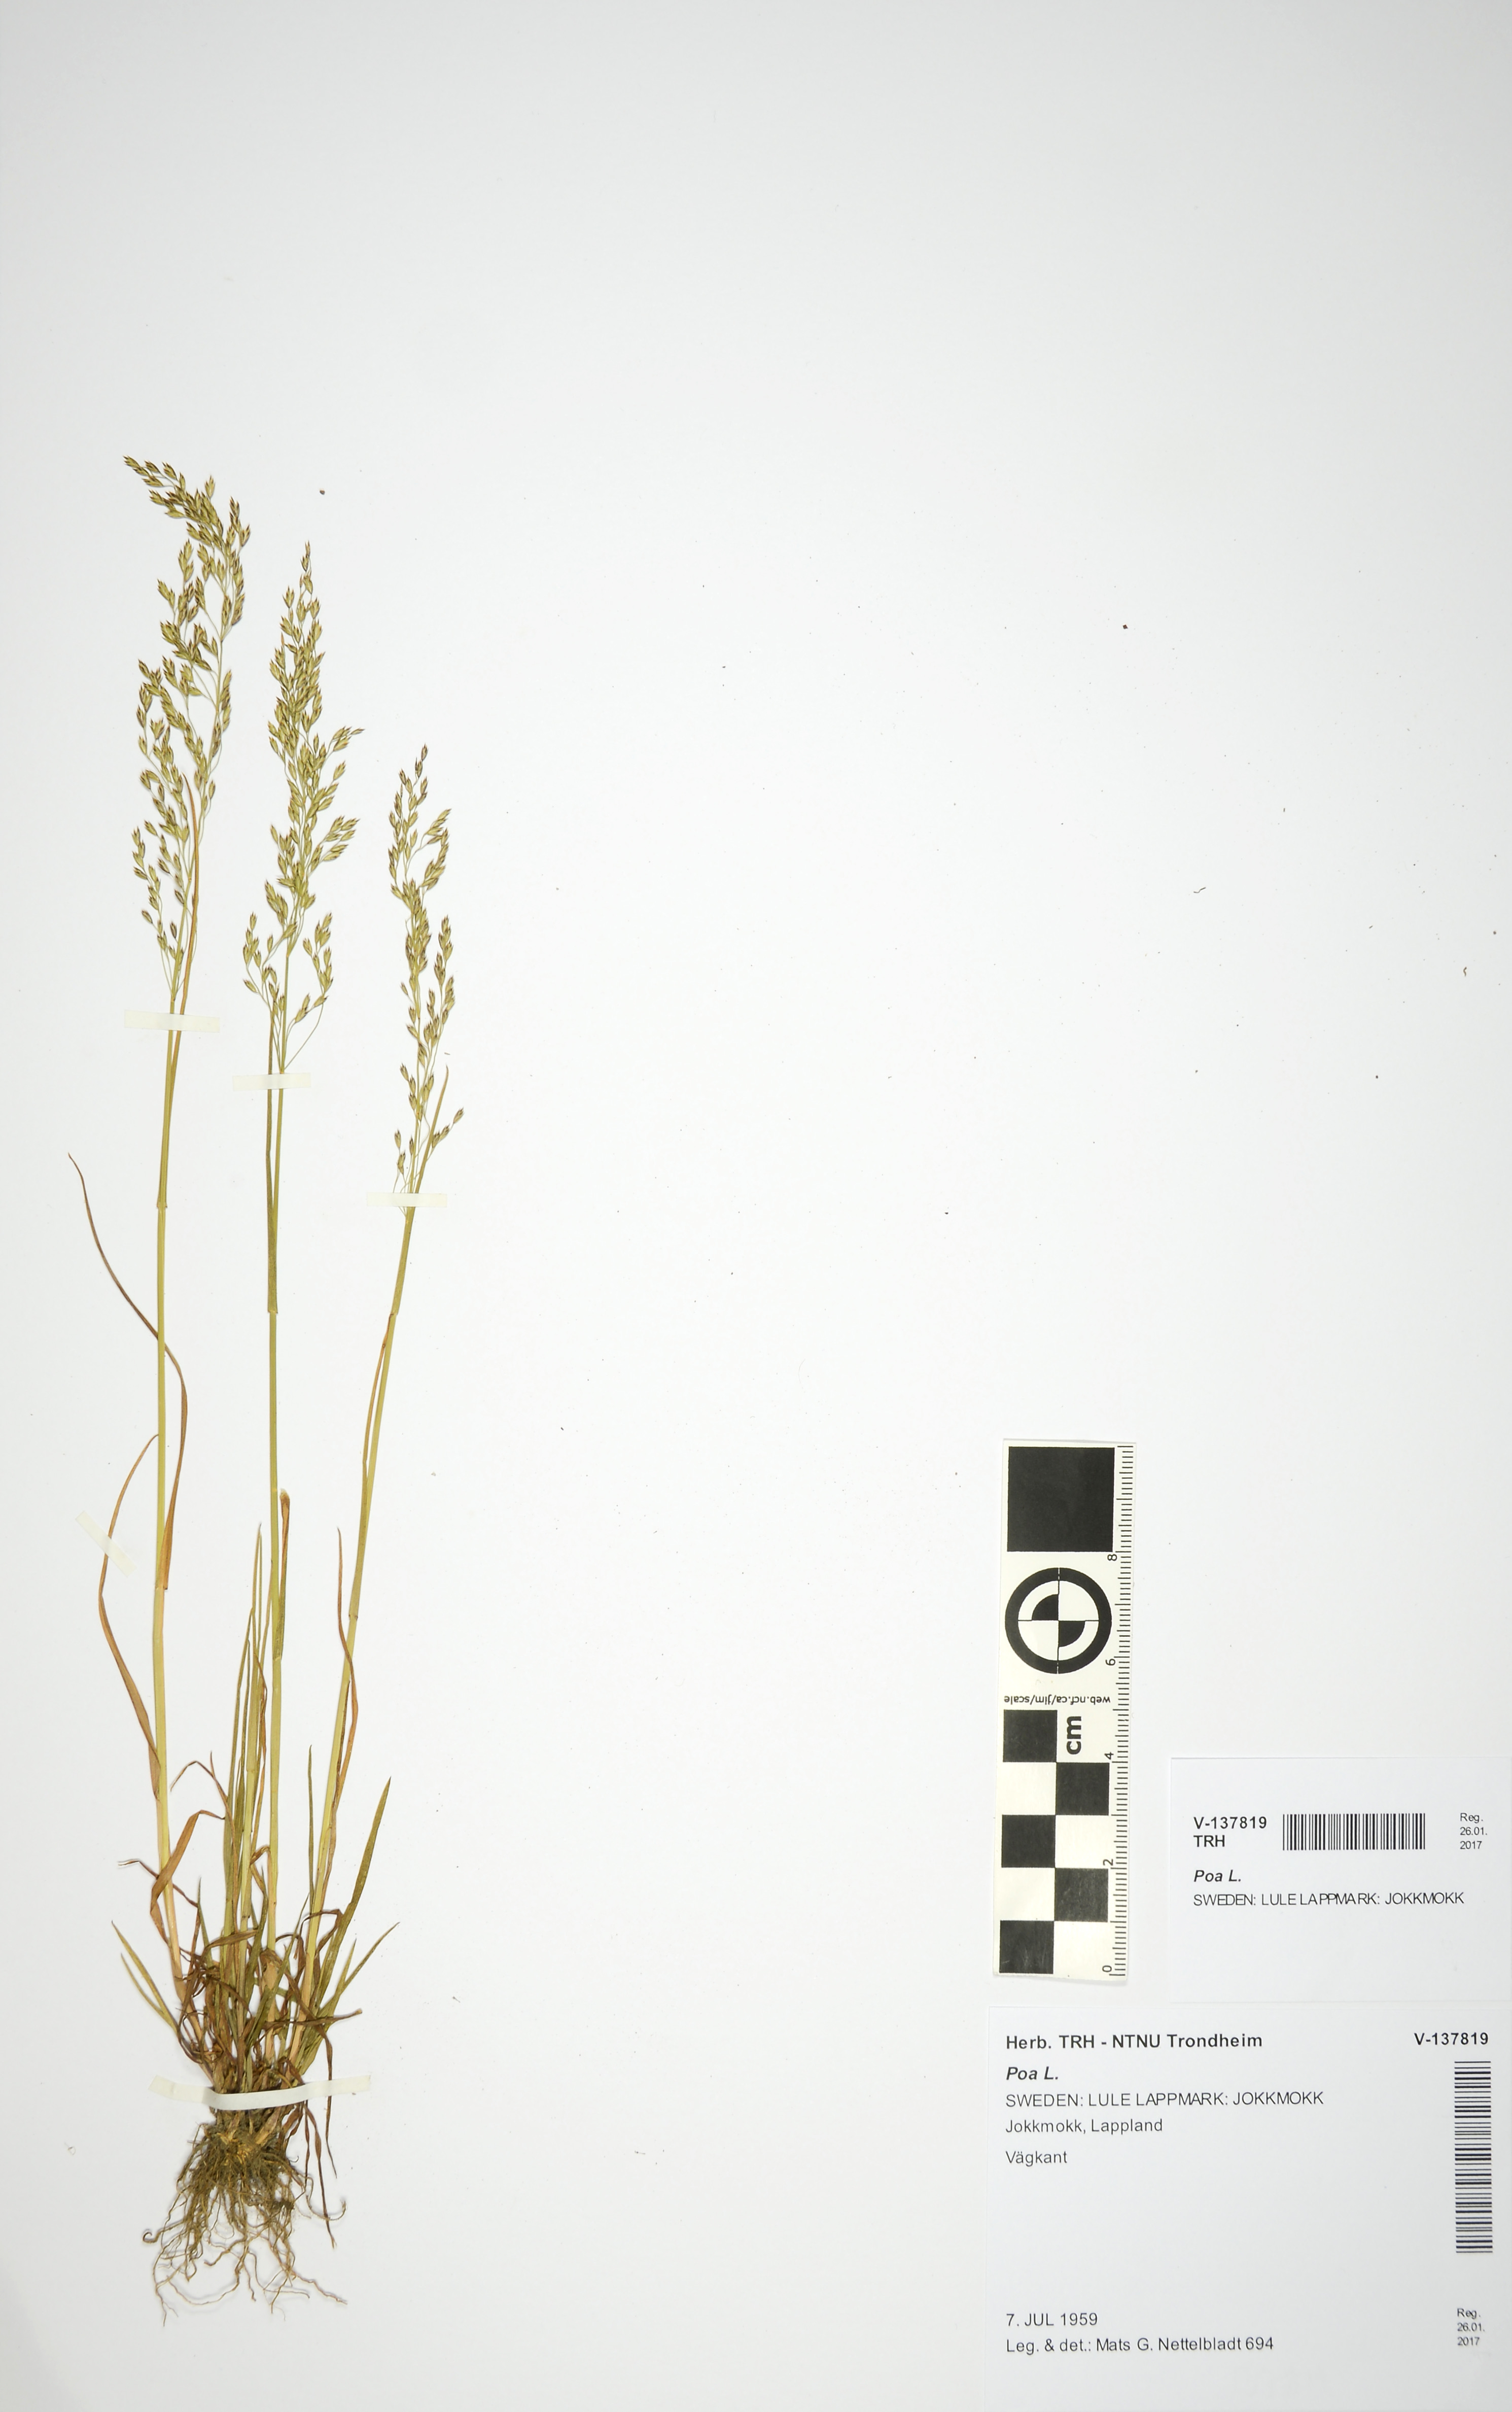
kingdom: Plantae
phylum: Tracheophyta
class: Liliopsida
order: Poales
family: Poaceae
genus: Poa
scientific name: Poa
